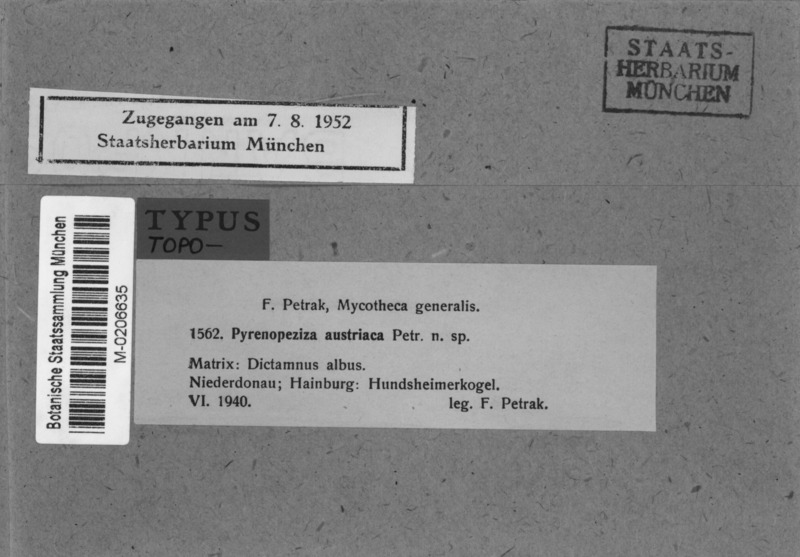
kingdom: Fungi
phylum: Ascomycota
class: Leotiomycetes
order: Helotiales
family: Ploettnerulaceae
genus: Pyrenopeziza
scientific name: Pyrenopeziza austriaca
